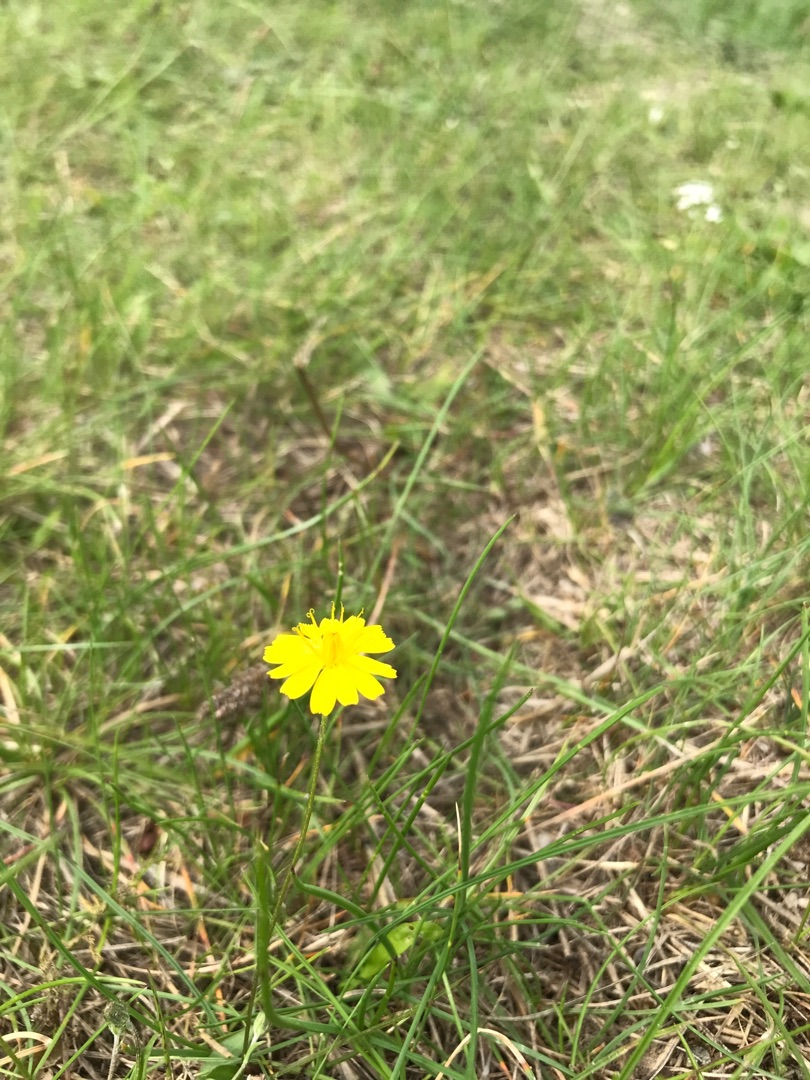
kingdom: Plantae
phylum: Tracheophyta
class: Magnoliopsida
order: Asterales
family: Asteraceae
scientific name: Asteraceae
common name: Kurvblomstfamilien
